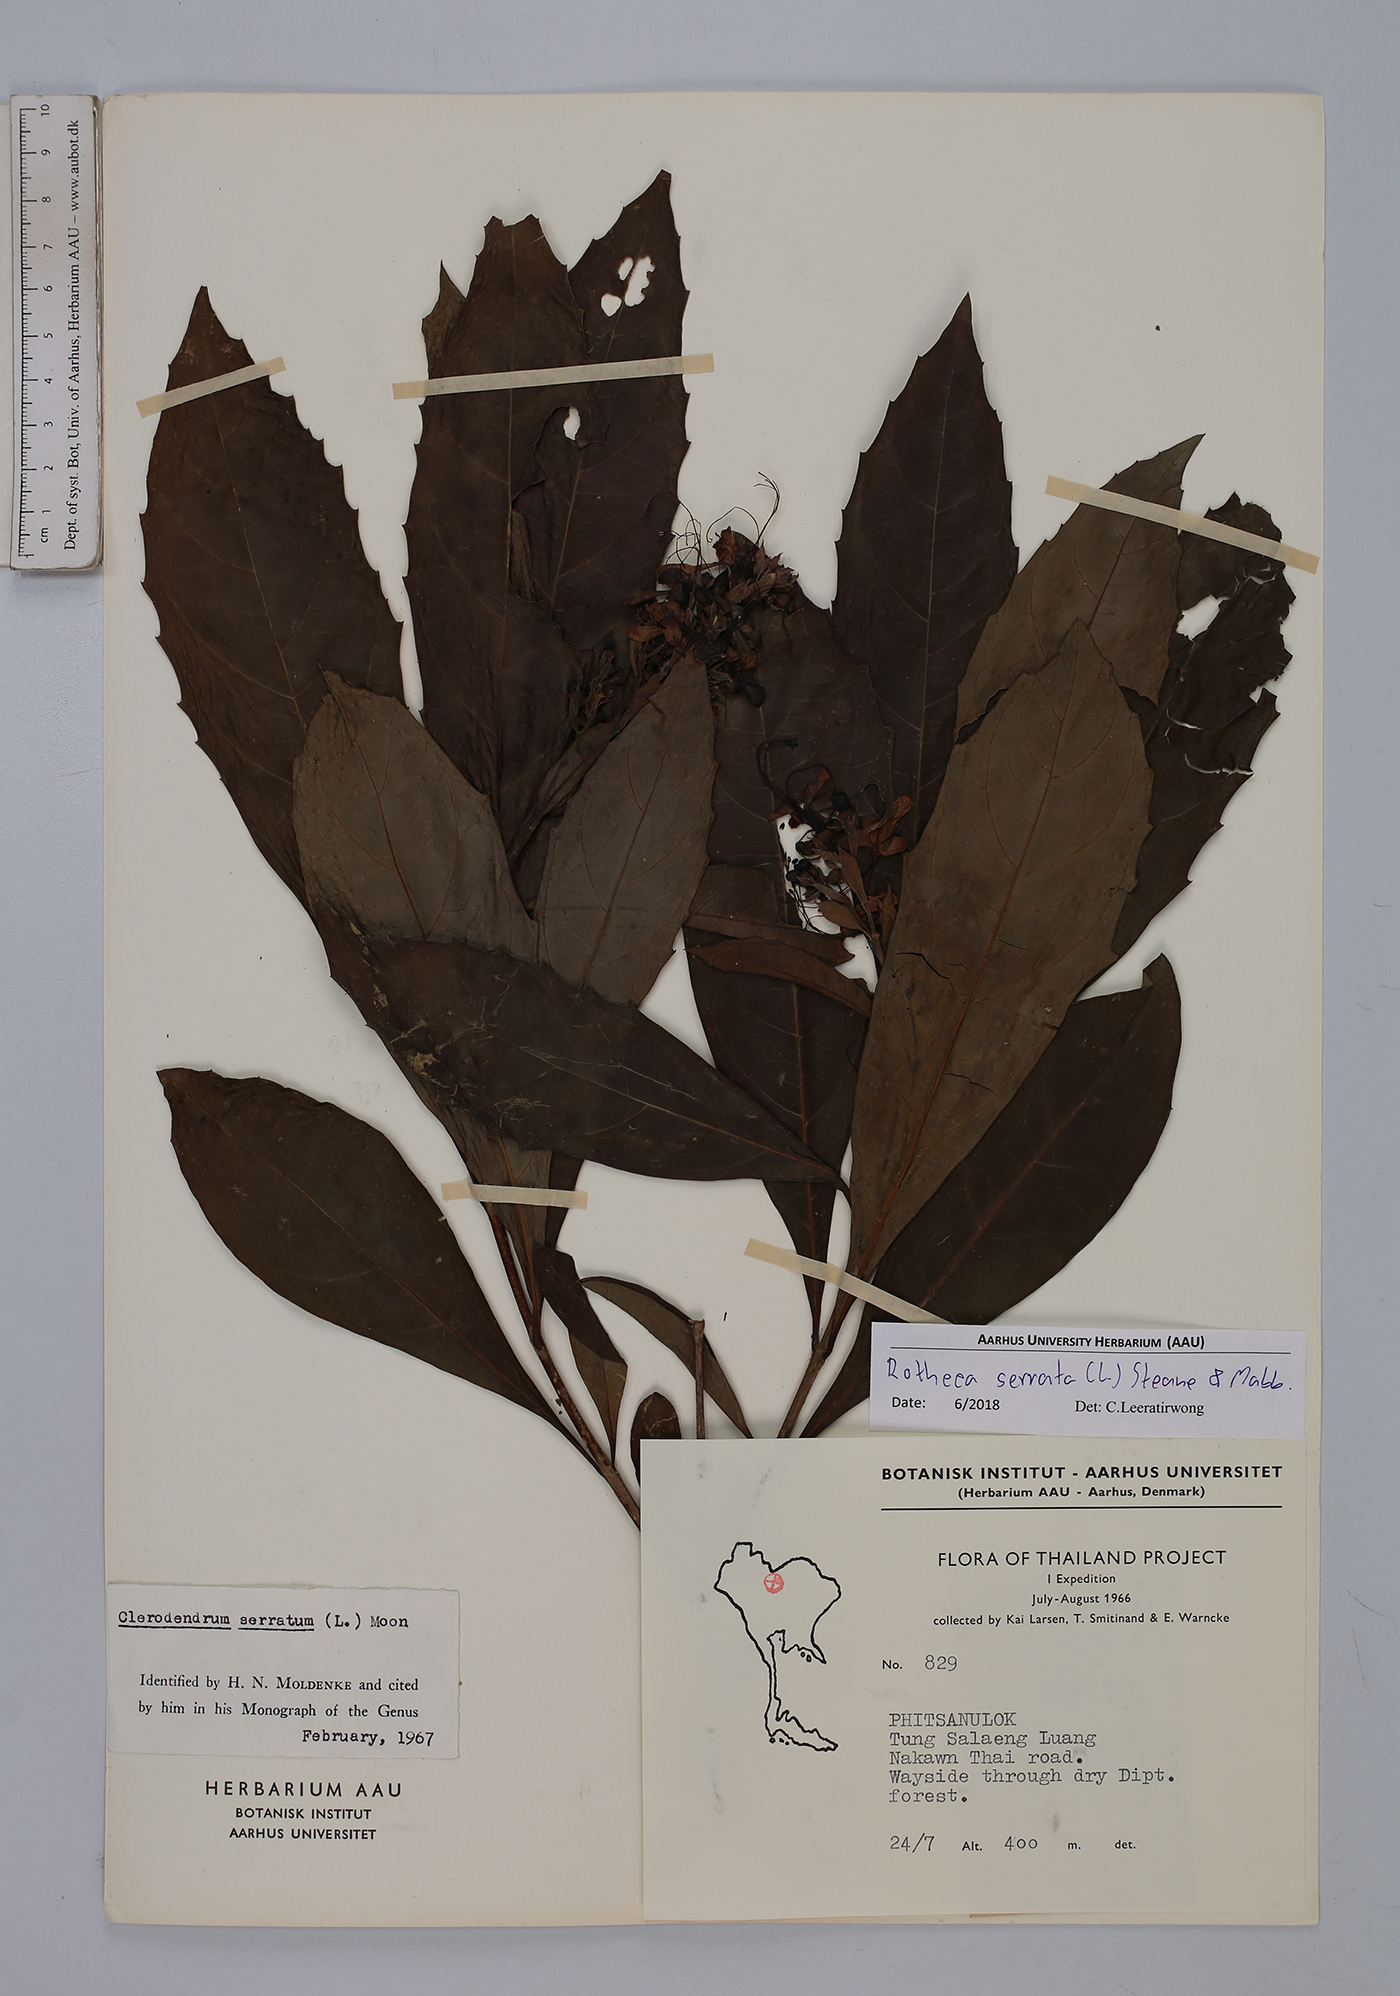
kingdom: Plantae
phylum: Tracheophyta
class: Magnoliopsida
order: Lamiales
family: Lamiaceae
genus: Rotheca
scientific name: Rotheca serrata
